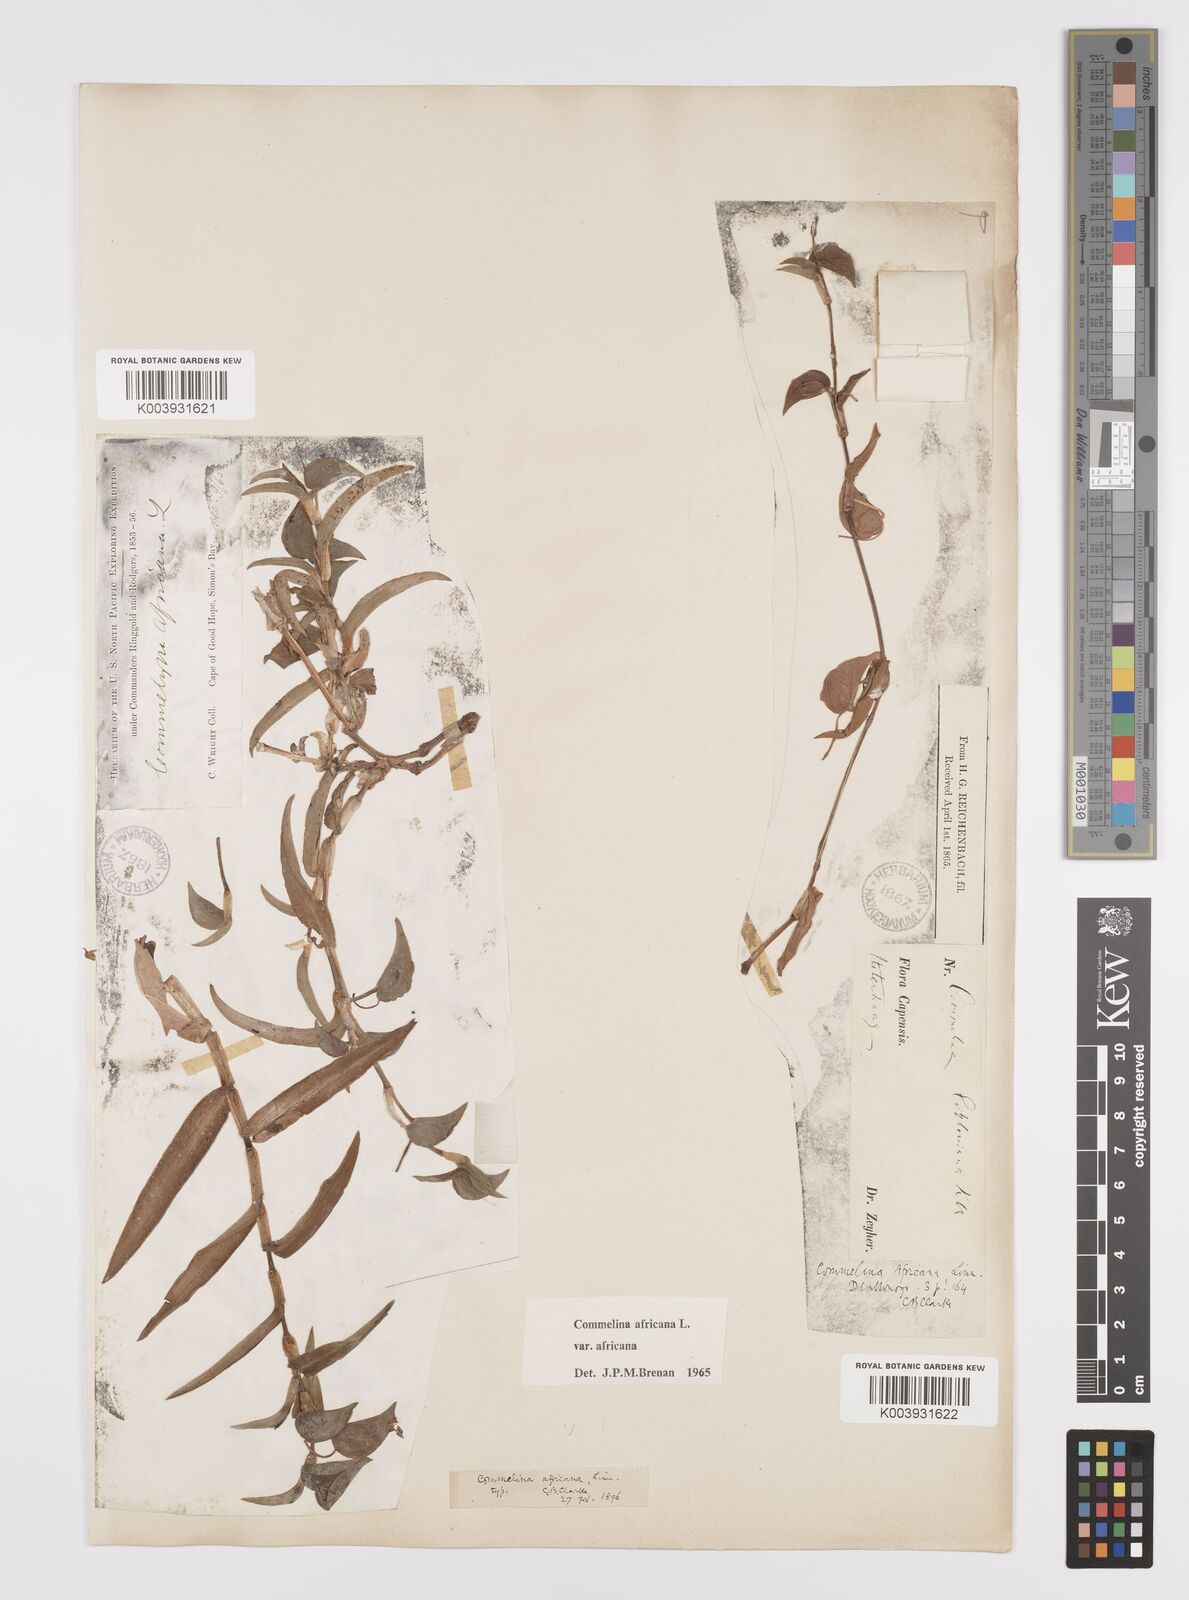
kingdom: Plantae
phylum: Tracheophyta
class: Liliopsida
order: Commelinales
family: Commelinaceae
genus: Commelina
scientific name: Commelina africana
